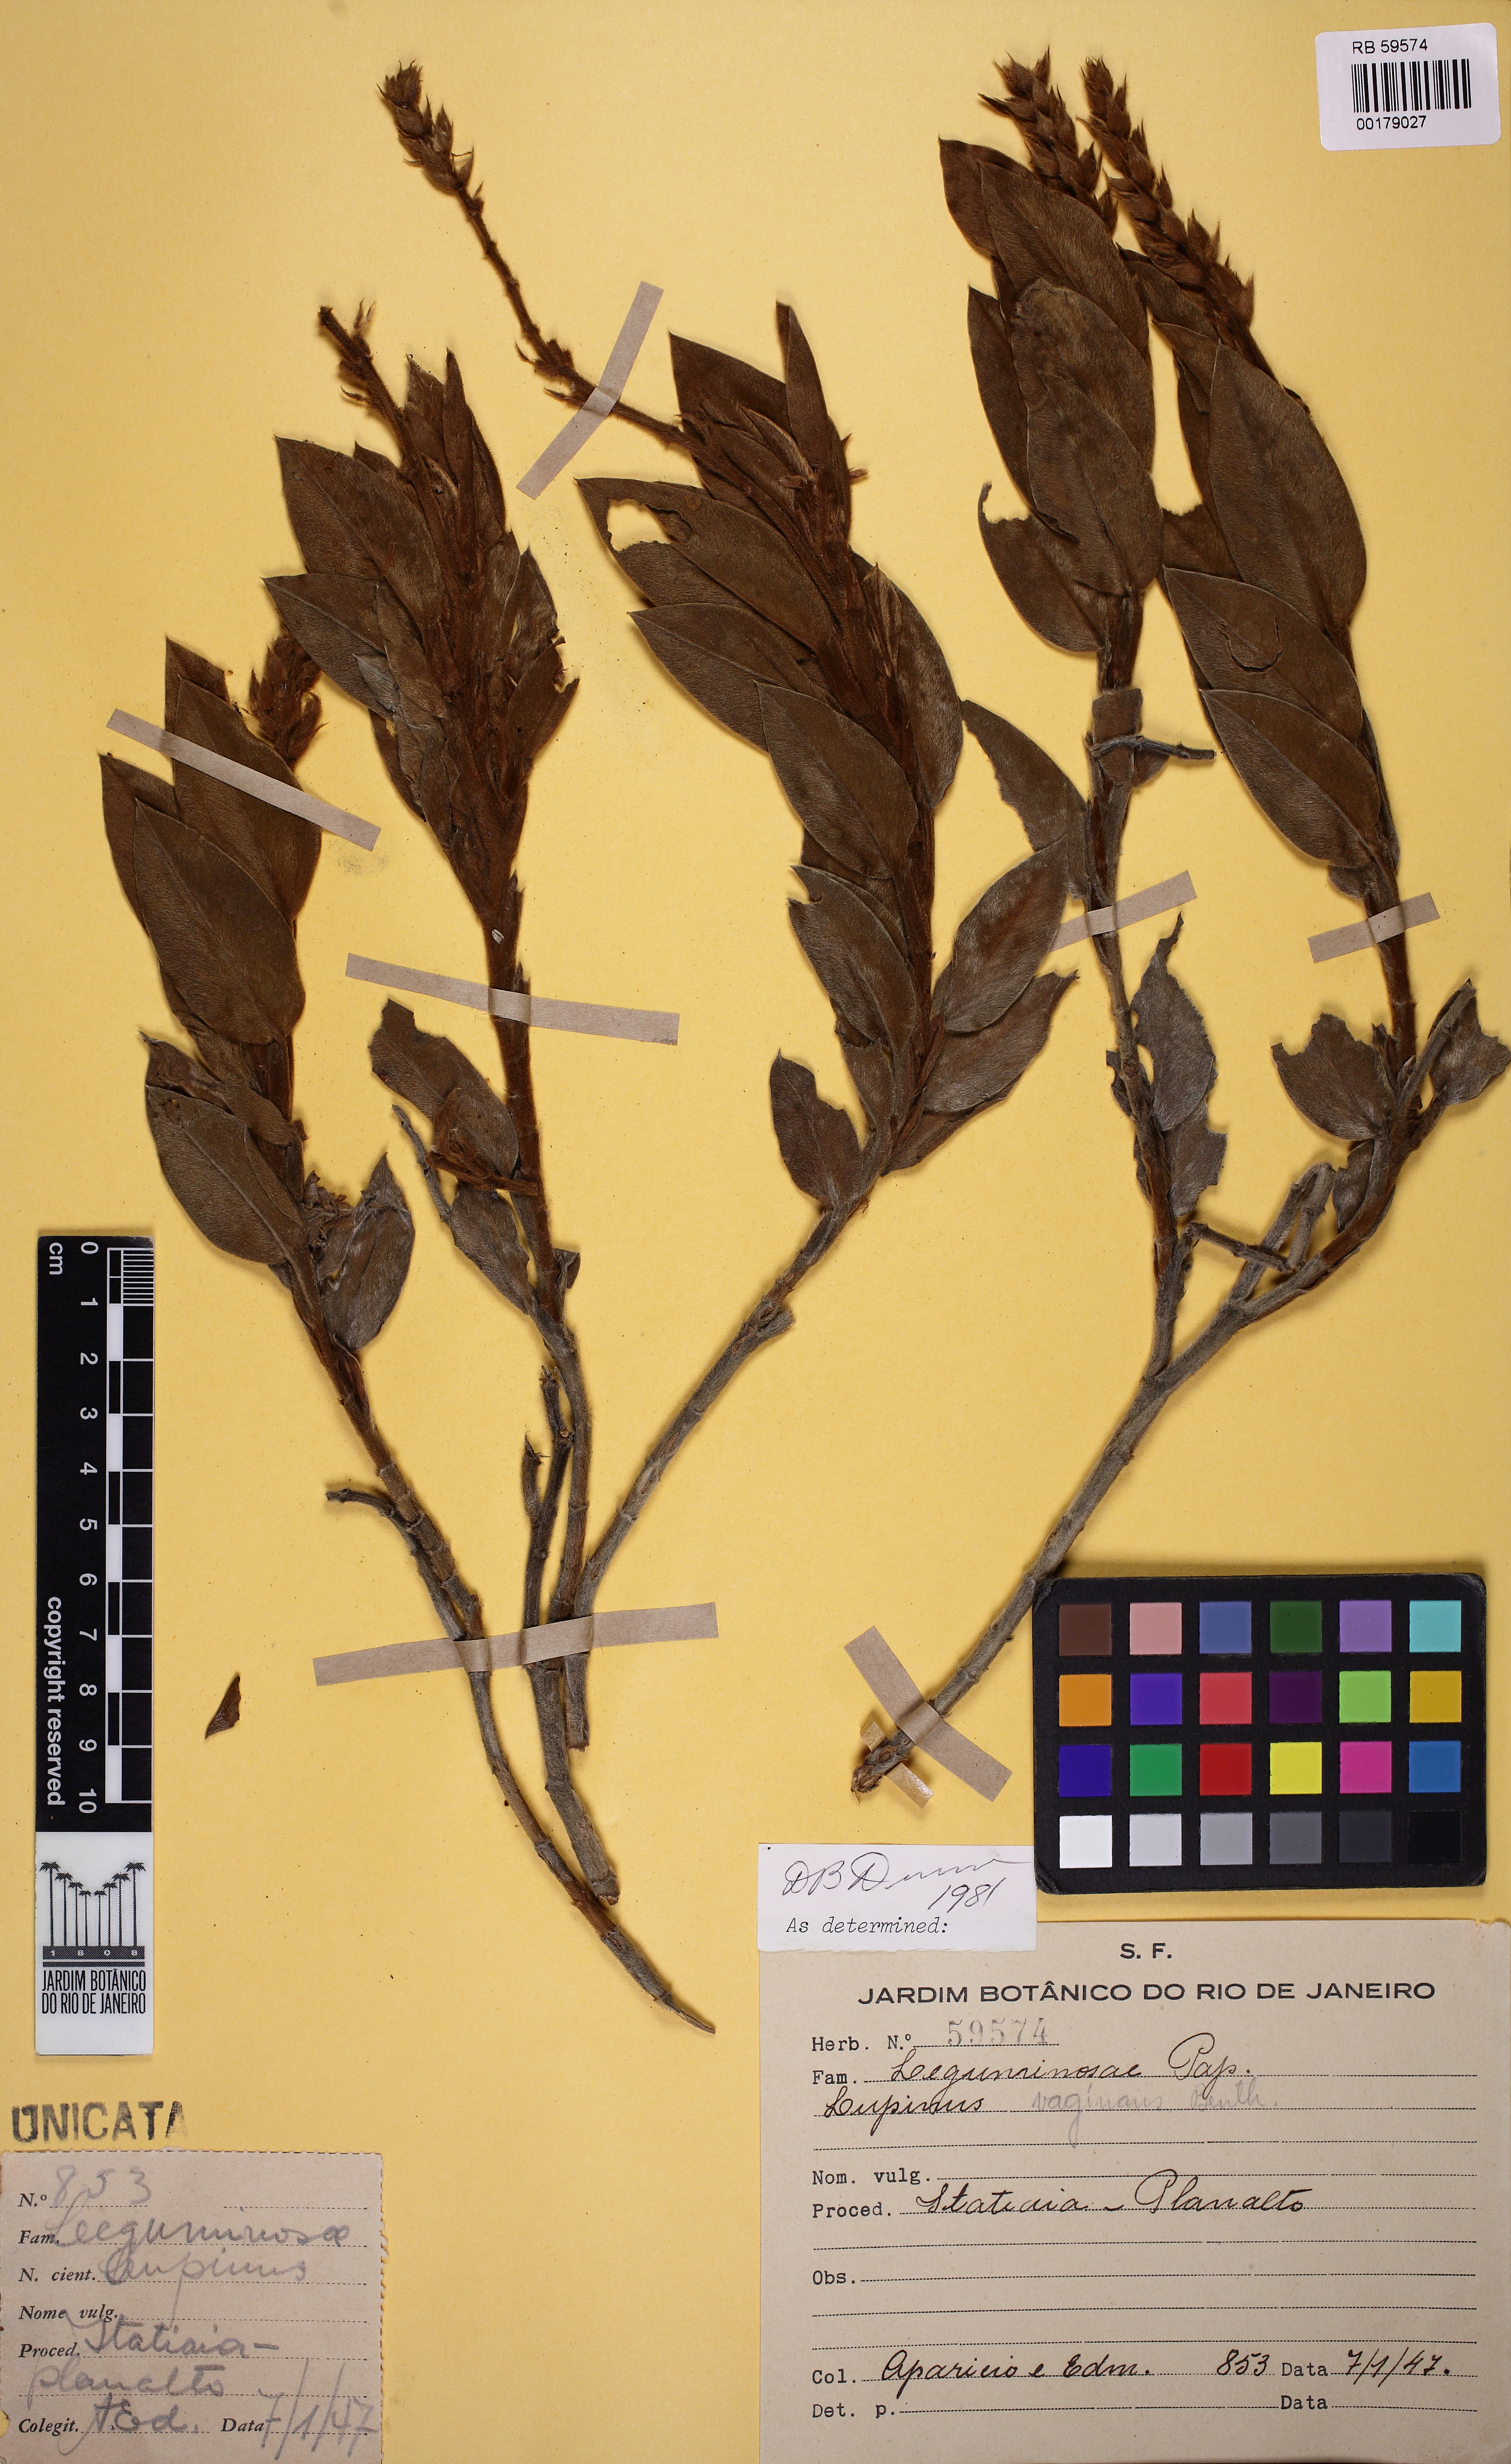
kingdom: Plantae
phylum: Tracheophyta
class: Magnoliopsida
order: Fabales
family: Fabaceae
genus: Lupinus
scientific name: Lupinus velutinus
